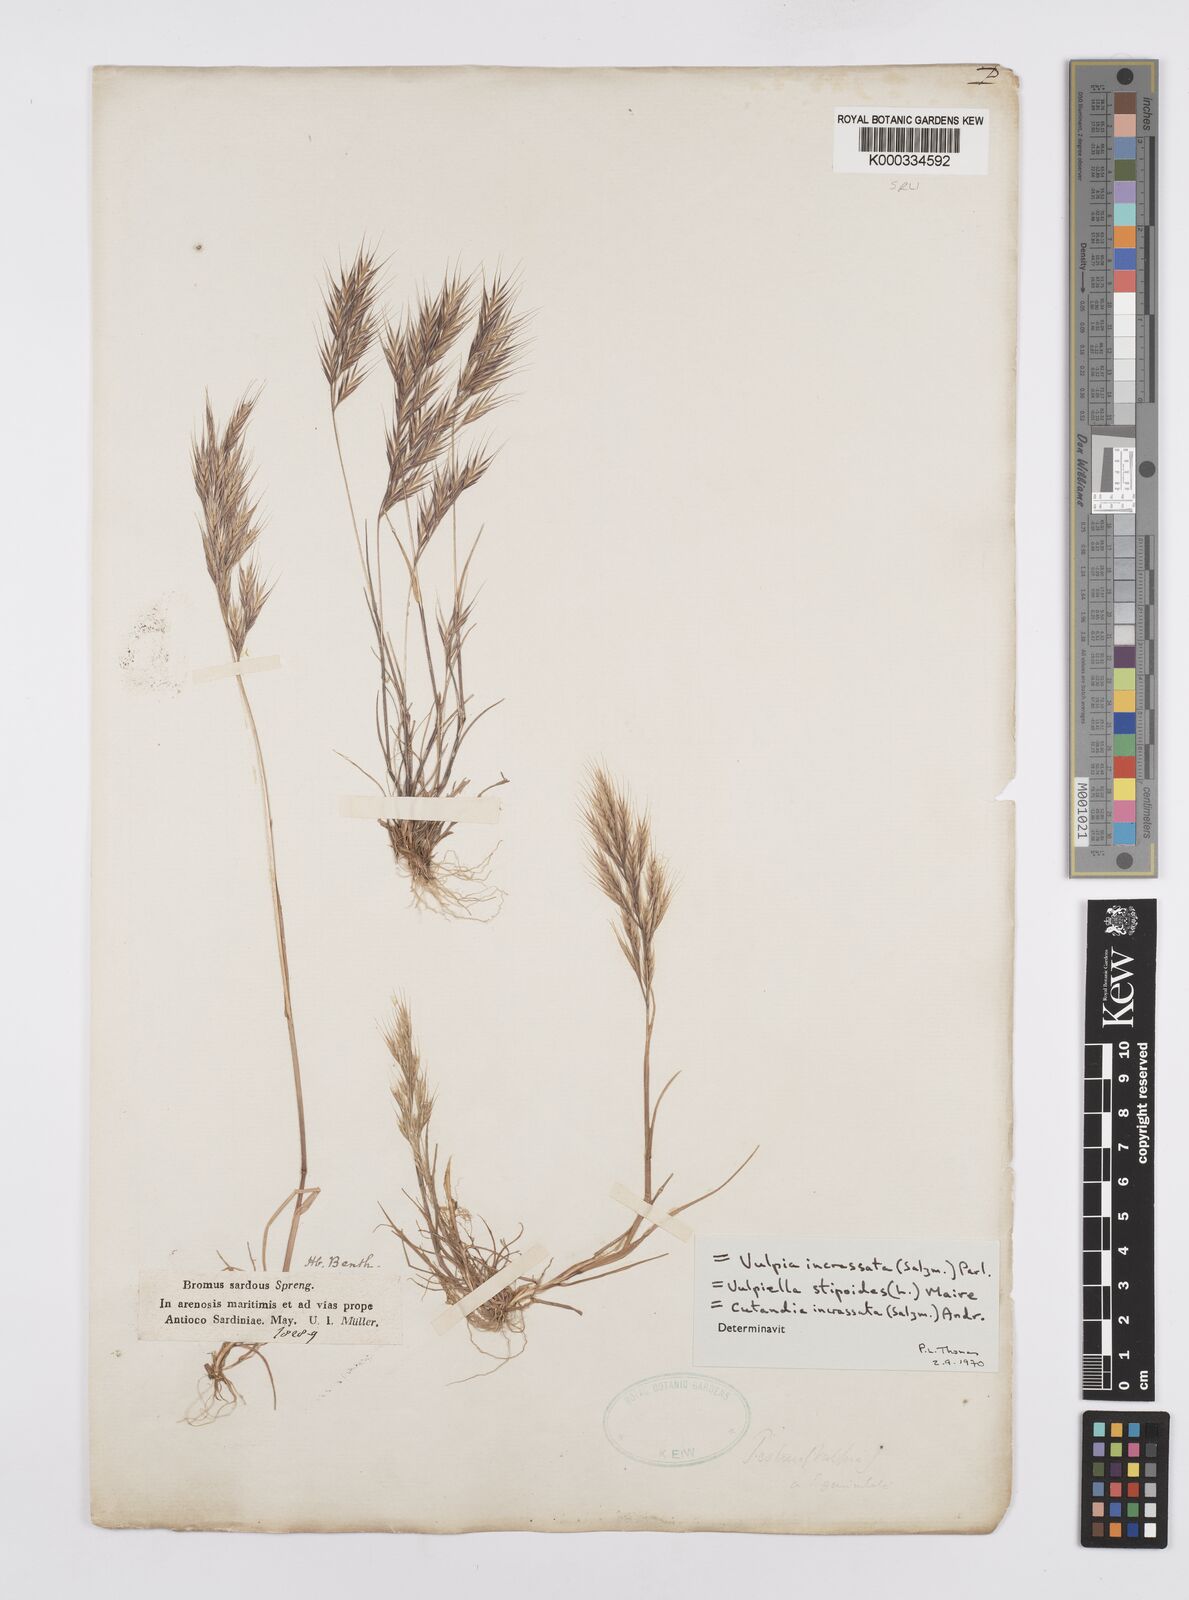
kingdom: Plantae
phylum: Tracheophyta
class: Liliopsida
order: Poales
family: Poaceae
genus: Vulpiella
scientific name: Vulpiella stipoides
